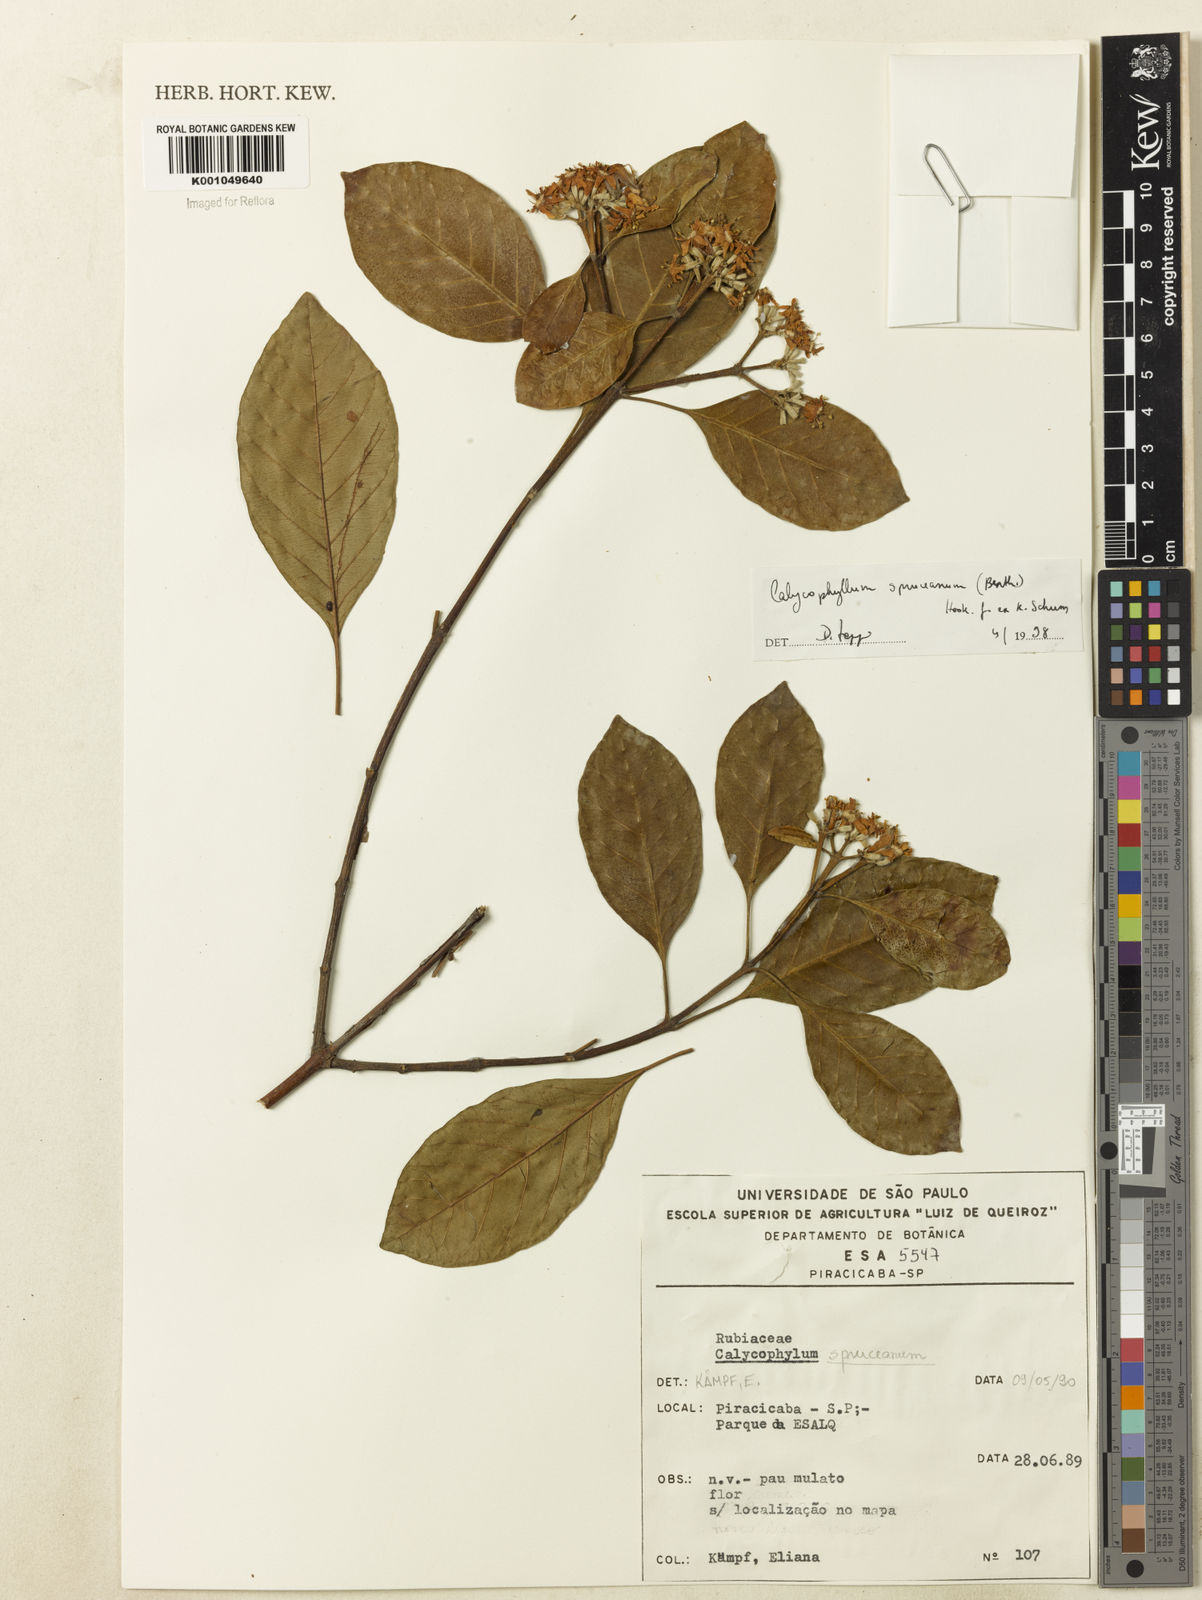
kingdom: Plantae
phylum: Tracheophyta
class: Magnoliopsida
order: Gentianales
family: Rubiaceae
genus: Calycophyllum
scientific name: Calycophyllum spruceanum
